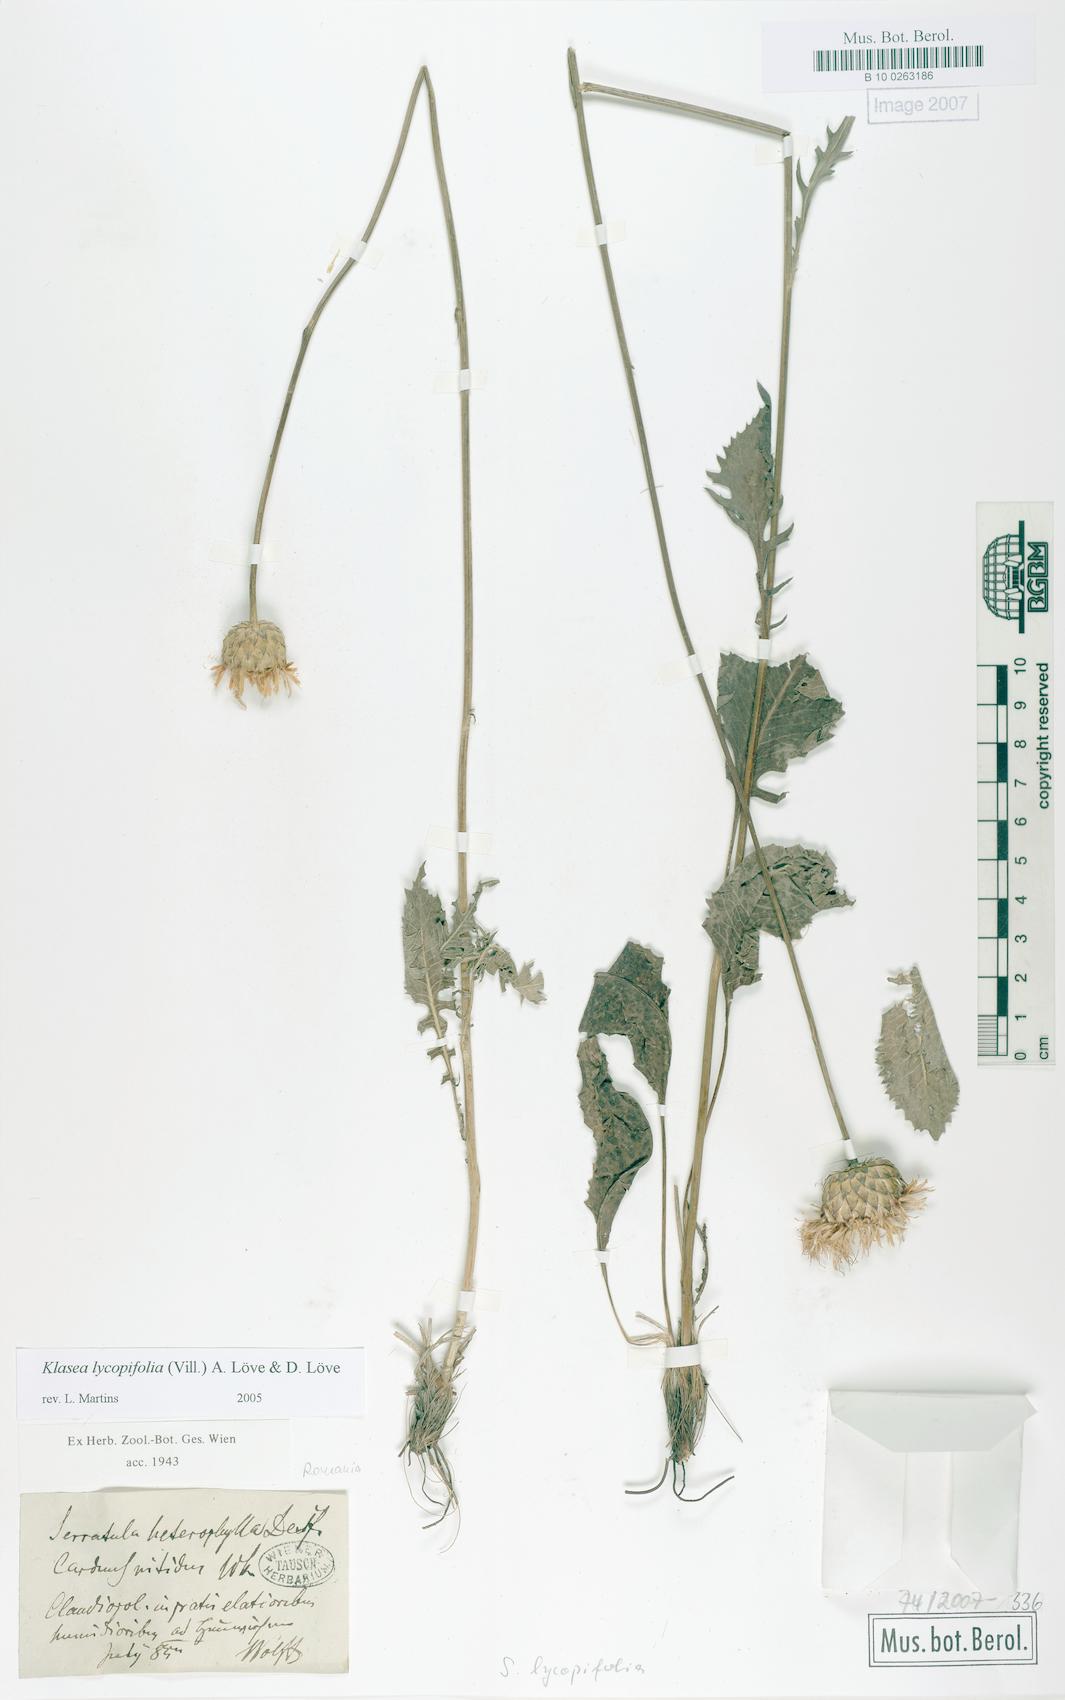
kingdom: Plantae
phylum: Tracheophyta
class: Magnoliopsida
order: Asterales
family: Asteraceae
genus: Klasea
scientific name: Klasea lycopifolia
